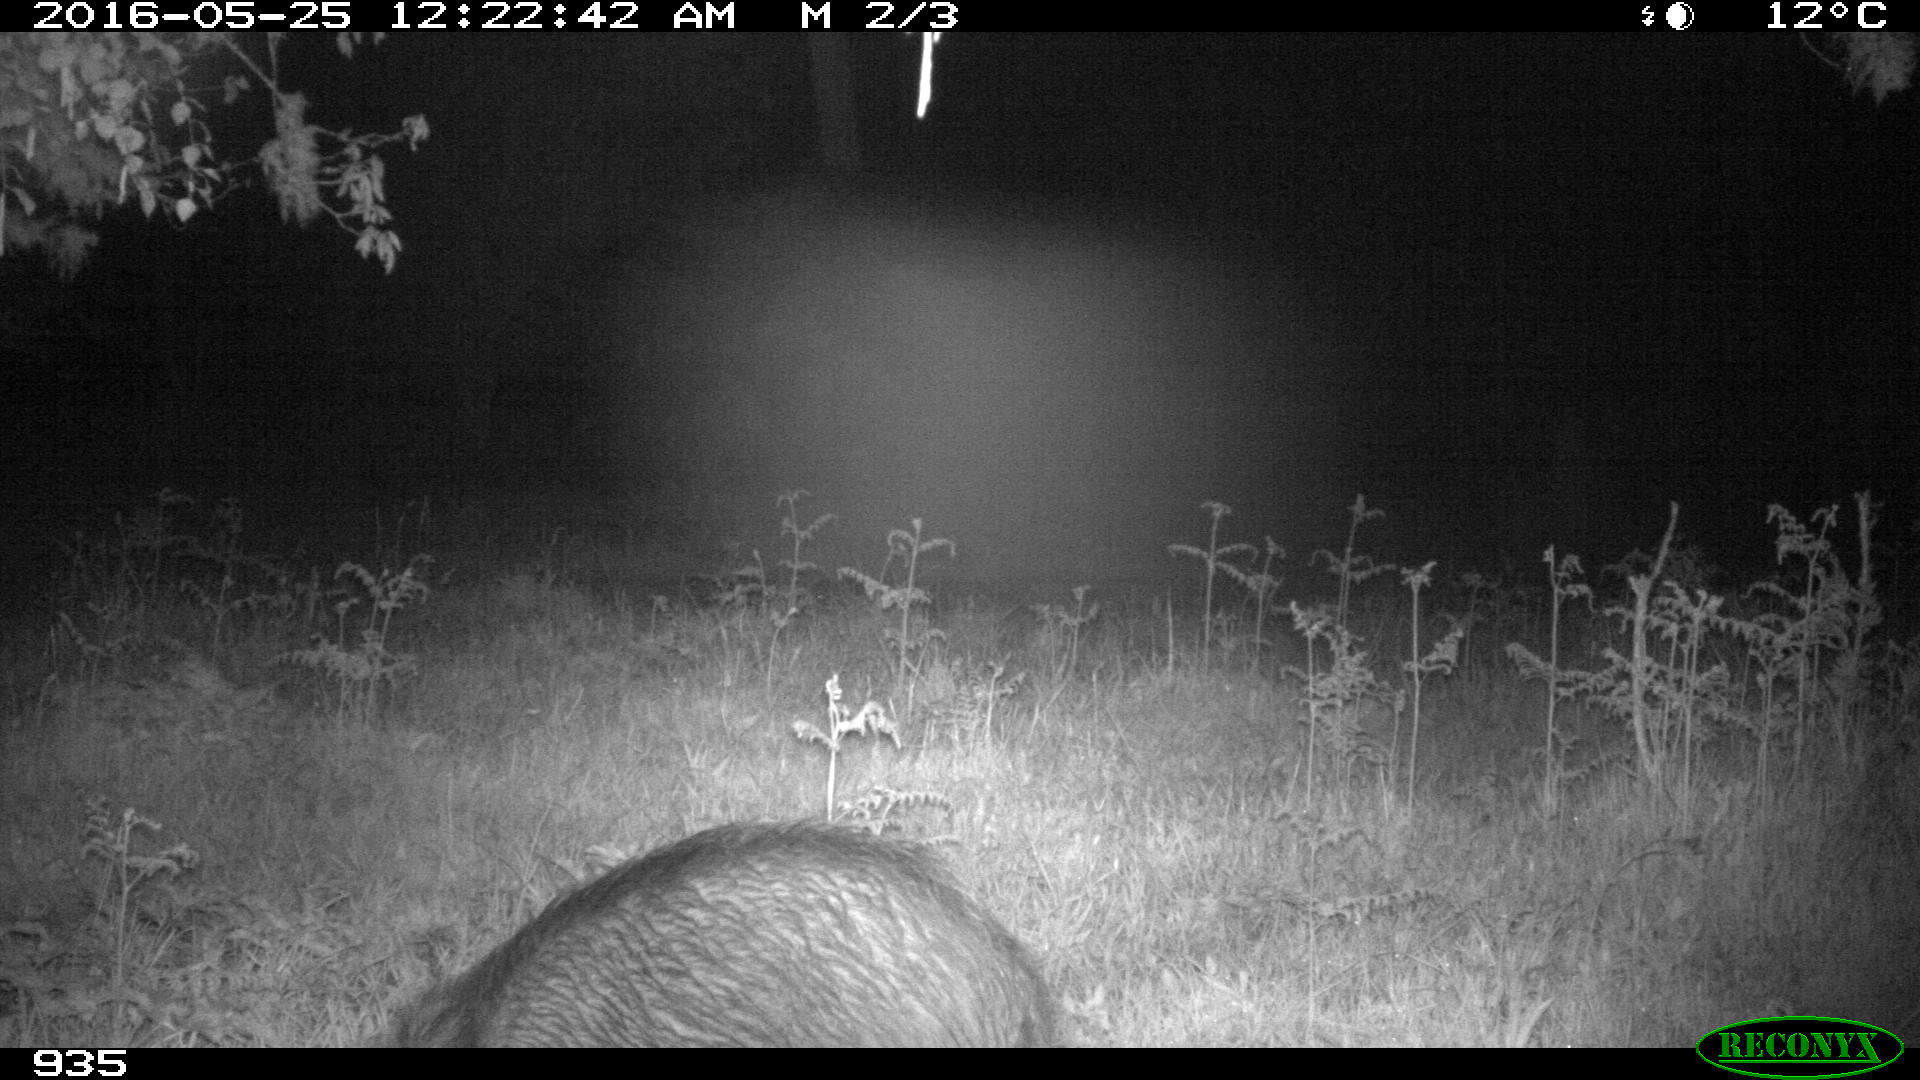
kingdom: Animalia
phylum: Chordata
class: Mammalia
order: Artiodactyla
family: Suidae
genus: Sus
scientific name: Sus scrofa
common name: Wild boar
